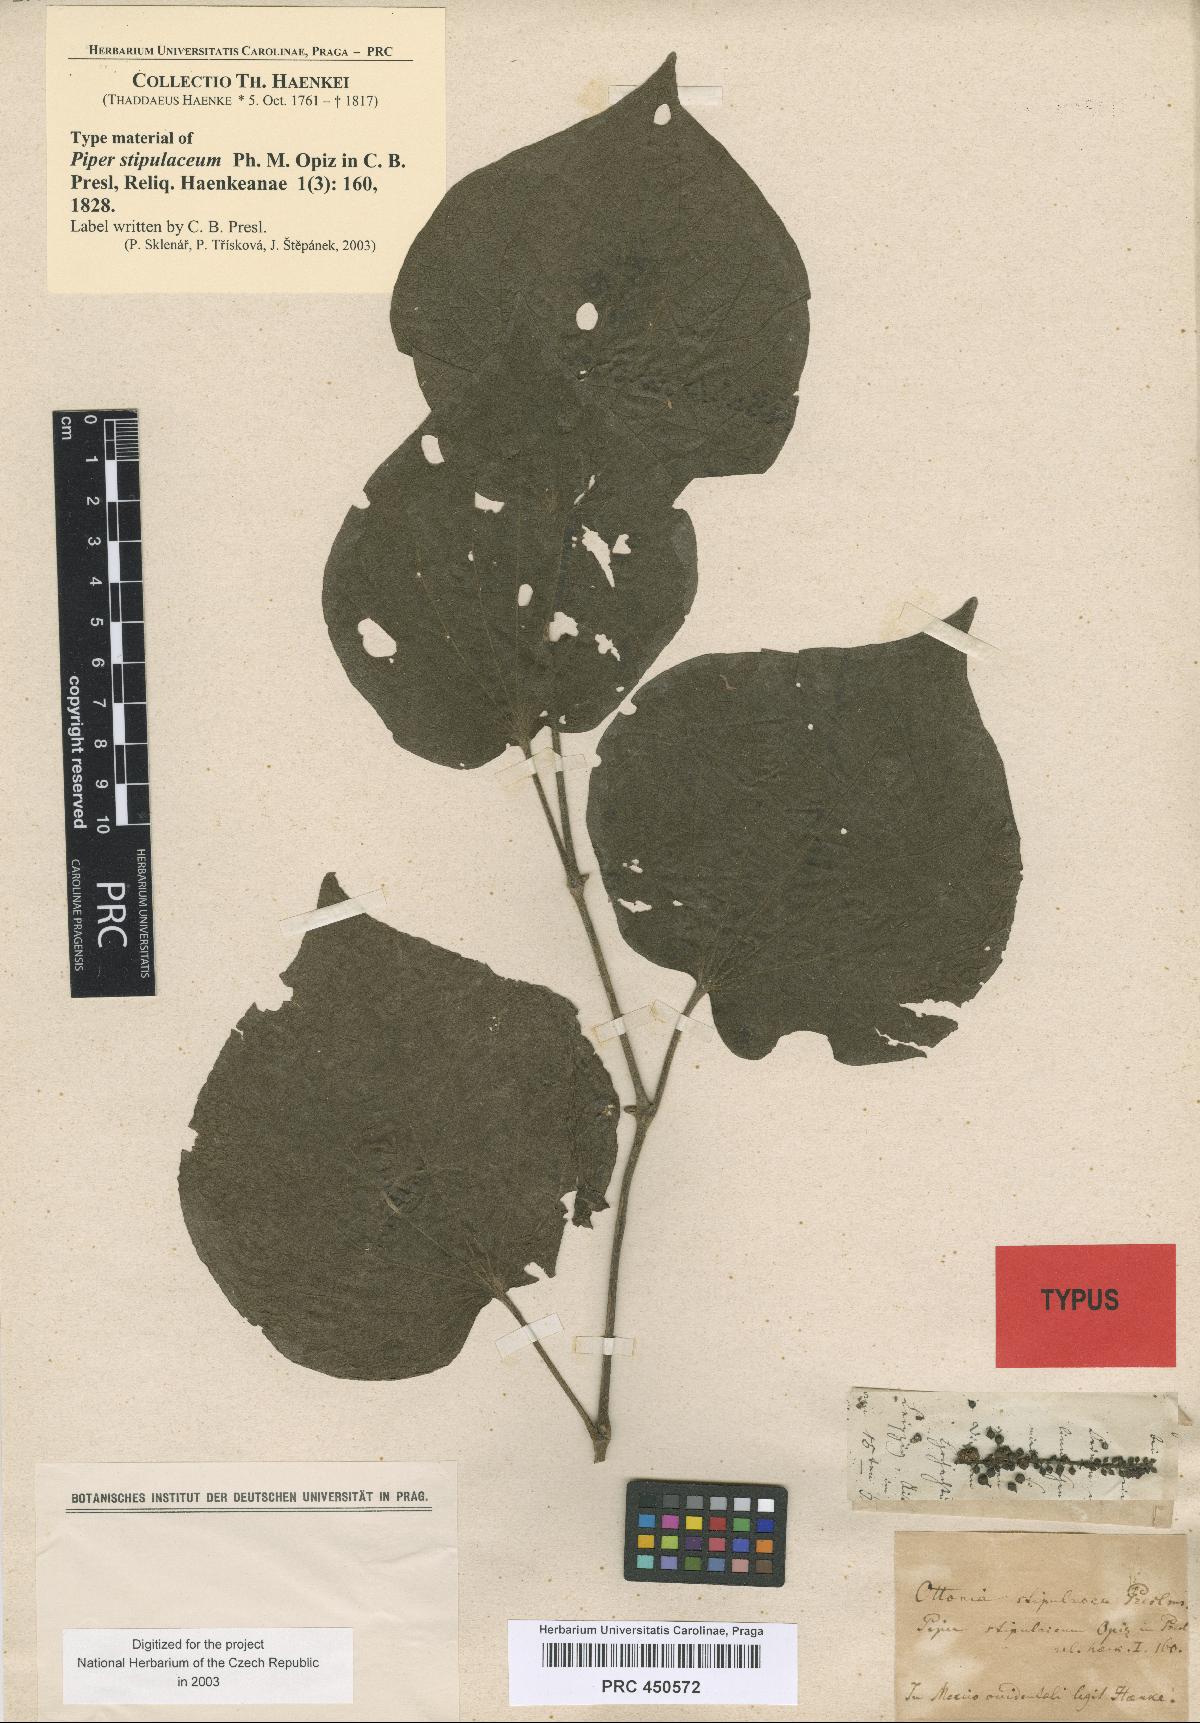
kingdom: Plantae
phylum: Tracheophyta
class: Magnoliopsida
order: Piperales
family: Piperaceae
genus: Piper
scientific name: Piper stipulaceum
